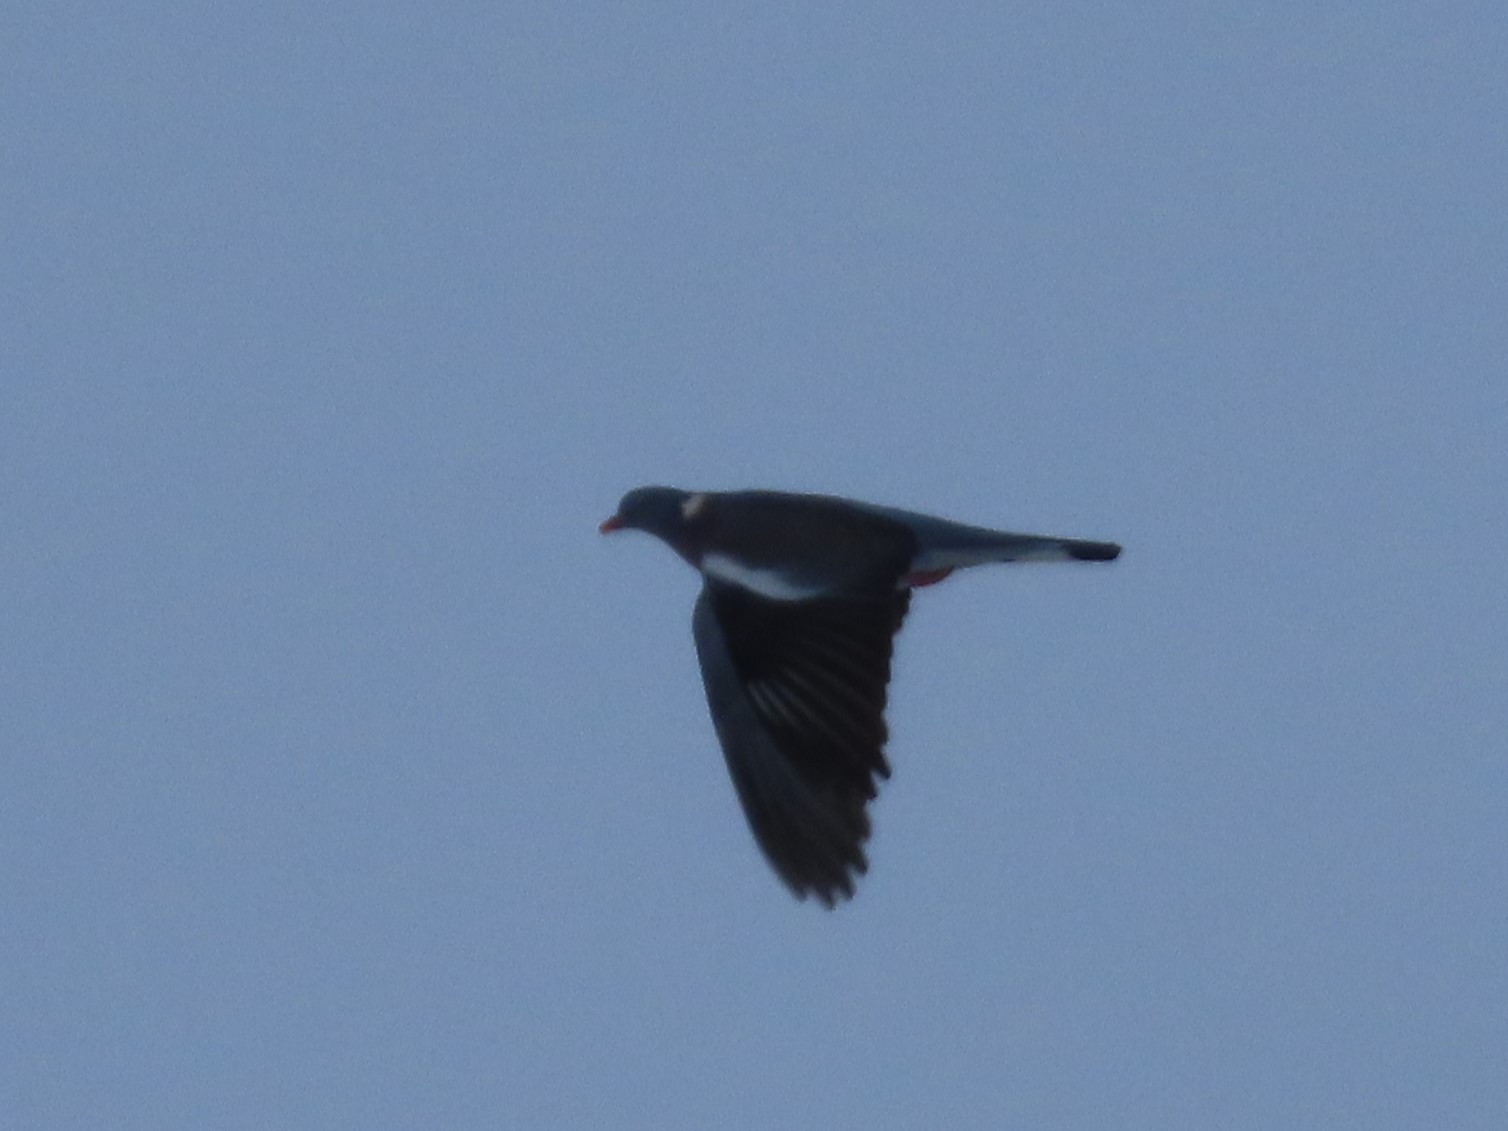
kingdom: Animalia
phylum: Chordata
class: Aves
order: Columbiformes
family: Columbidae
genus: Columba
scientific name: Columba palumbus
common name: Ringdue
